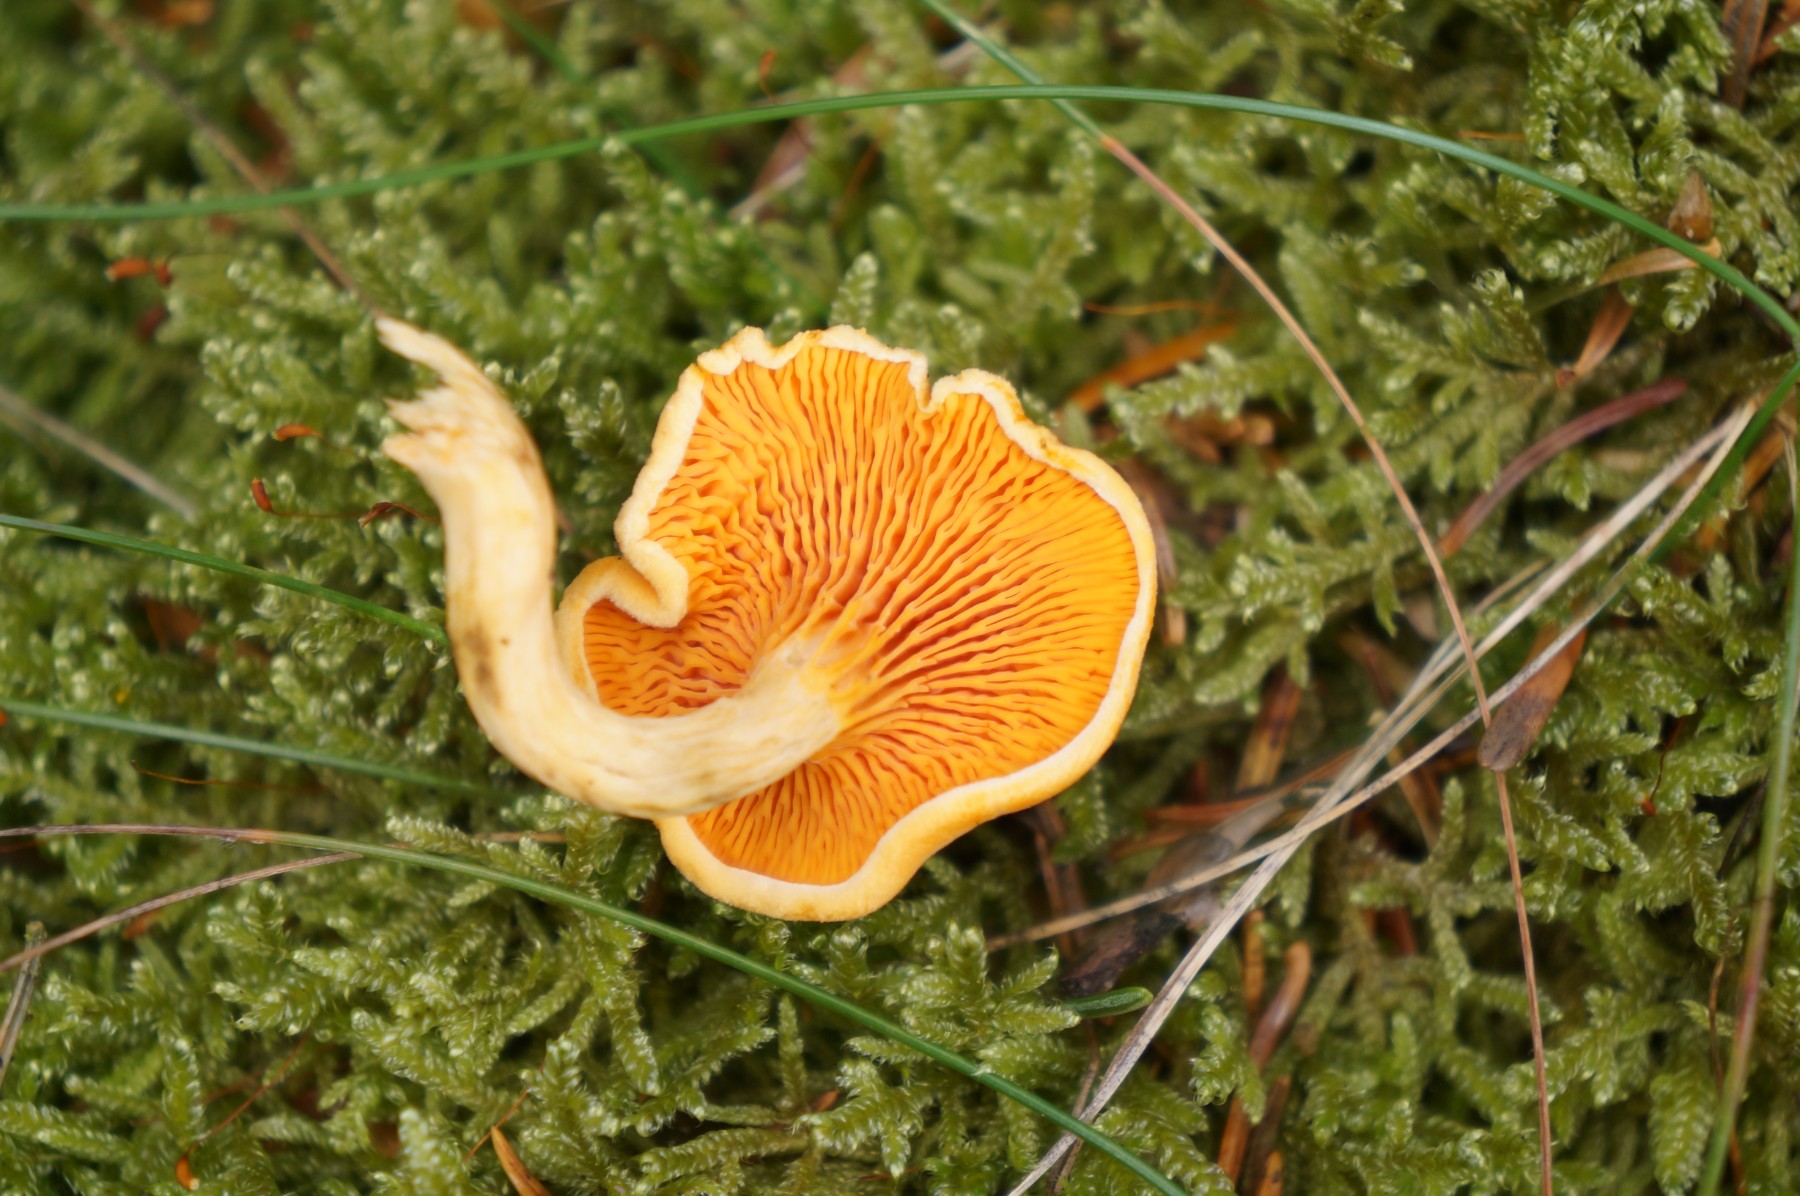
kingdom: Fungi
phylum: Basidiomycota
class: Agaricomycetes
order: Boletales
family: Hygrophoropsidaceae
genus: Hygrophoropsis
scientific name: Hygrophoropsis aurantiaca
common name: almindelig orangekantarel
